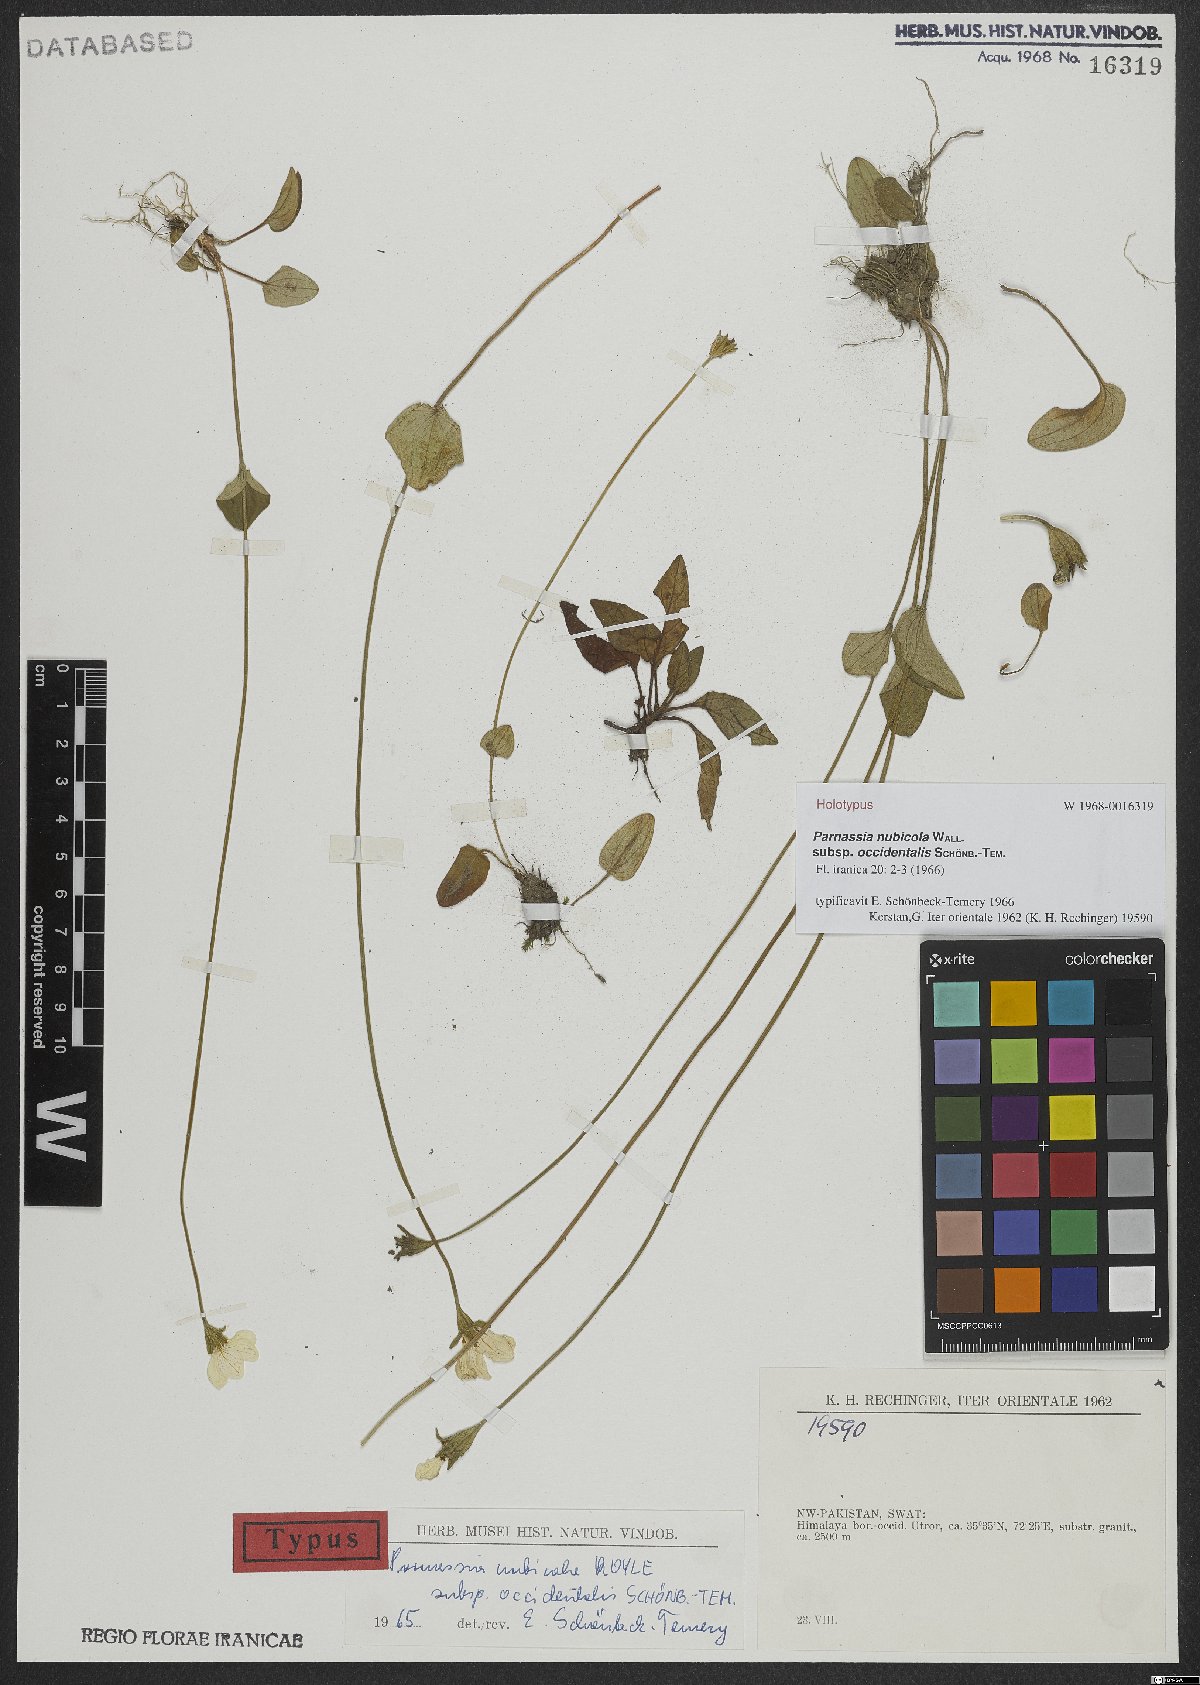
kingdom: Plantae
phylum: Tracheophyta
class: Magnoliopsida
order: Celastrales
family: Parnassiaceae
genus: Parnassia
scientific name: Parnassia nubicola
